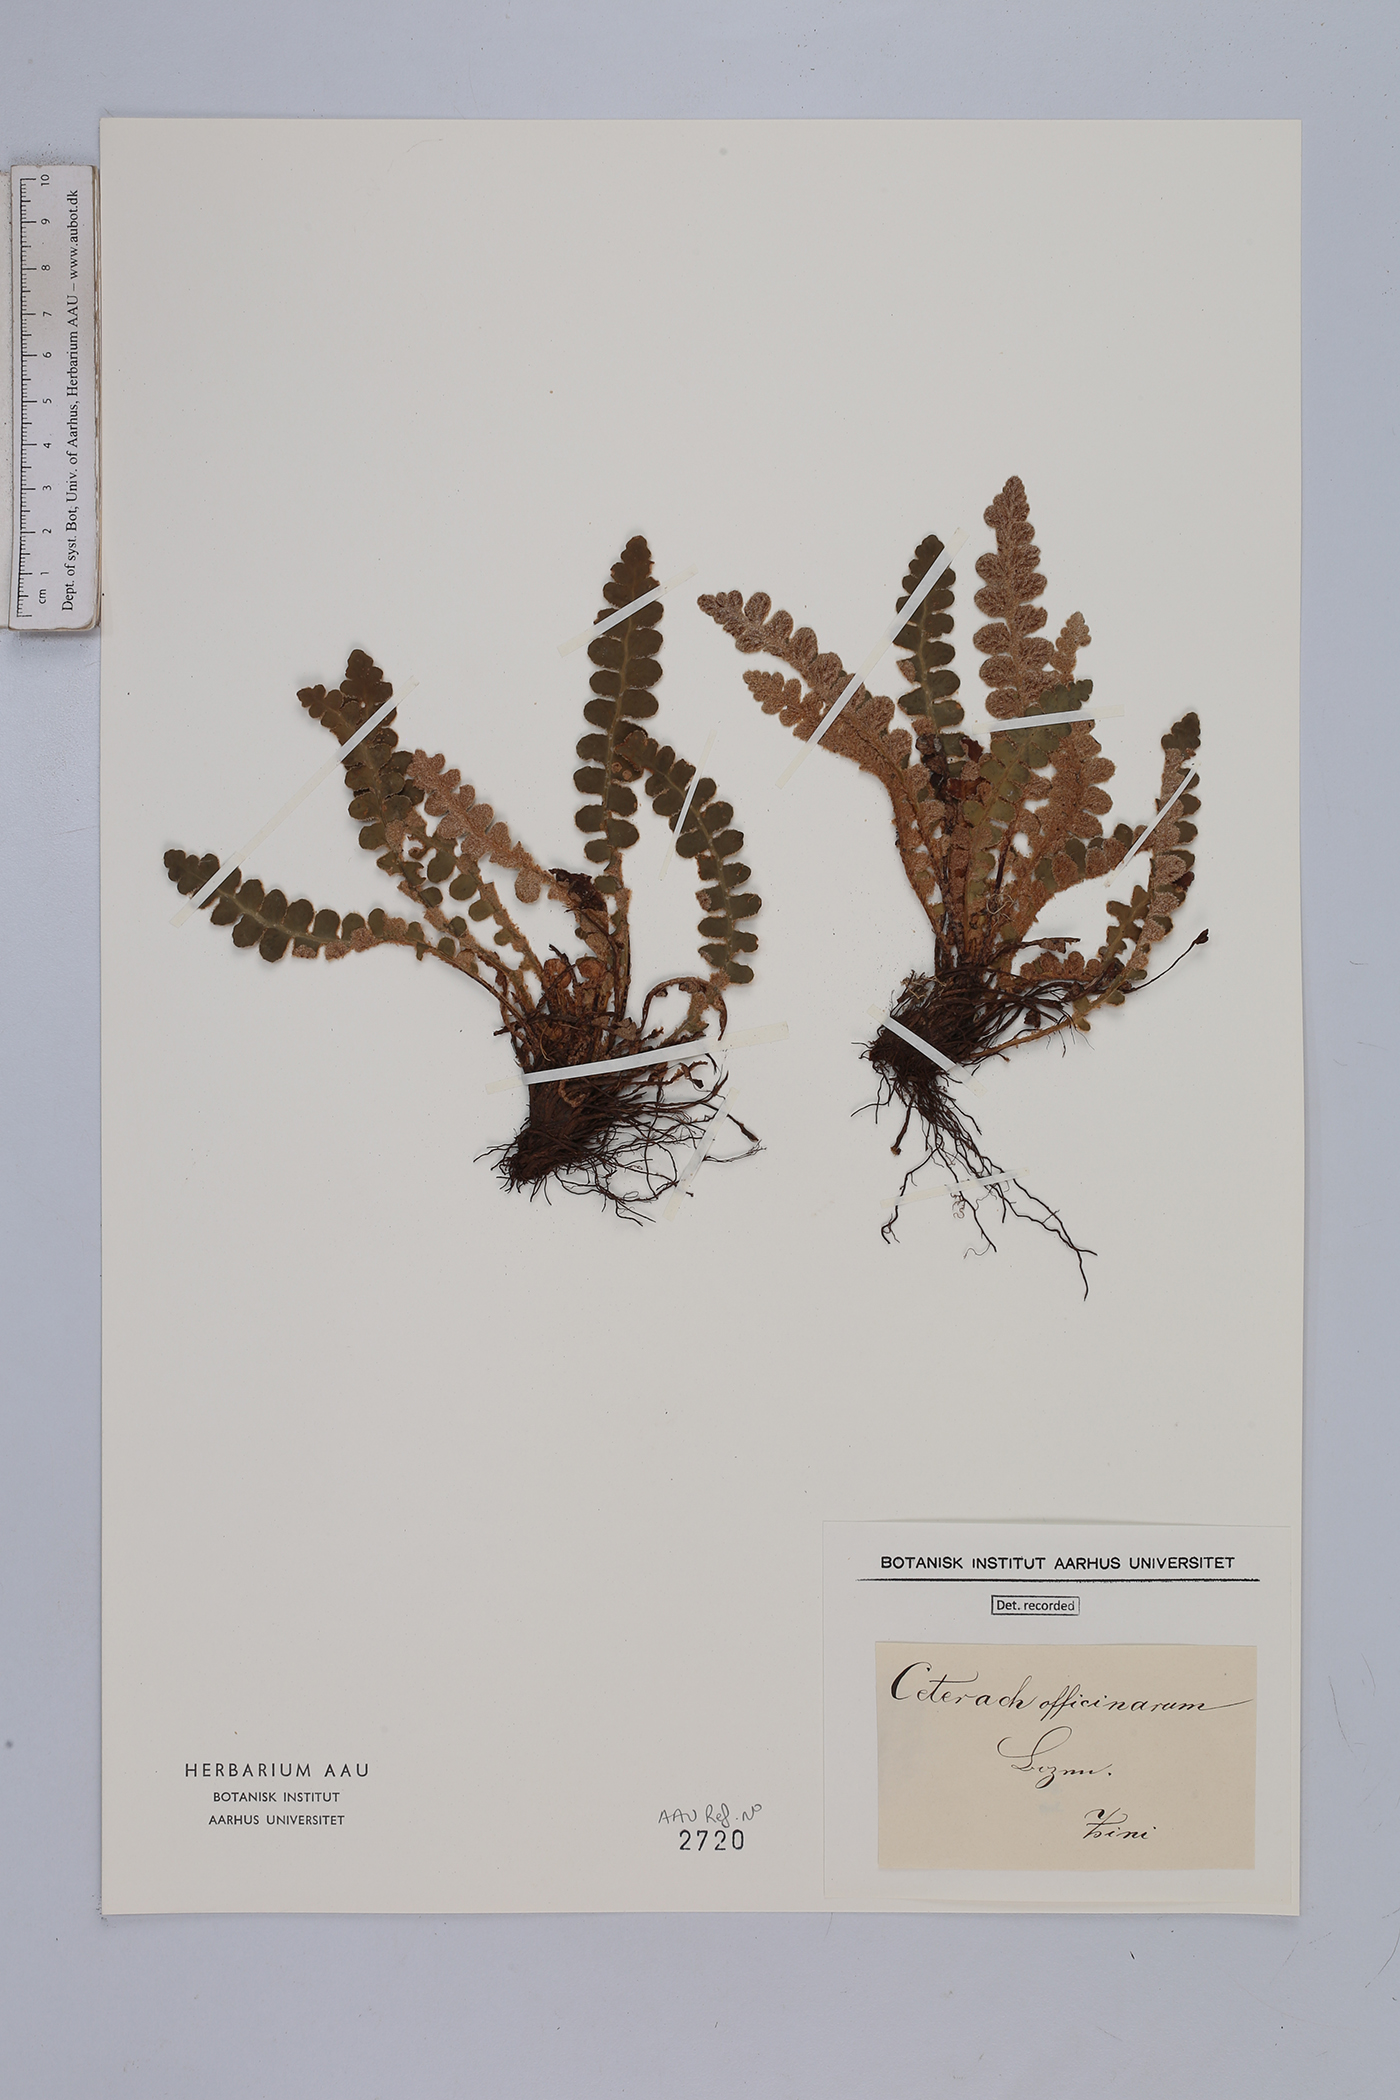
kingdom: Plantae
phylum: Tracheophyta
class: Polypodiopsida
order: Polypodiales
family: Aspleniaceae
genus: Asplenium
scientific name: Asplenium ceterach
